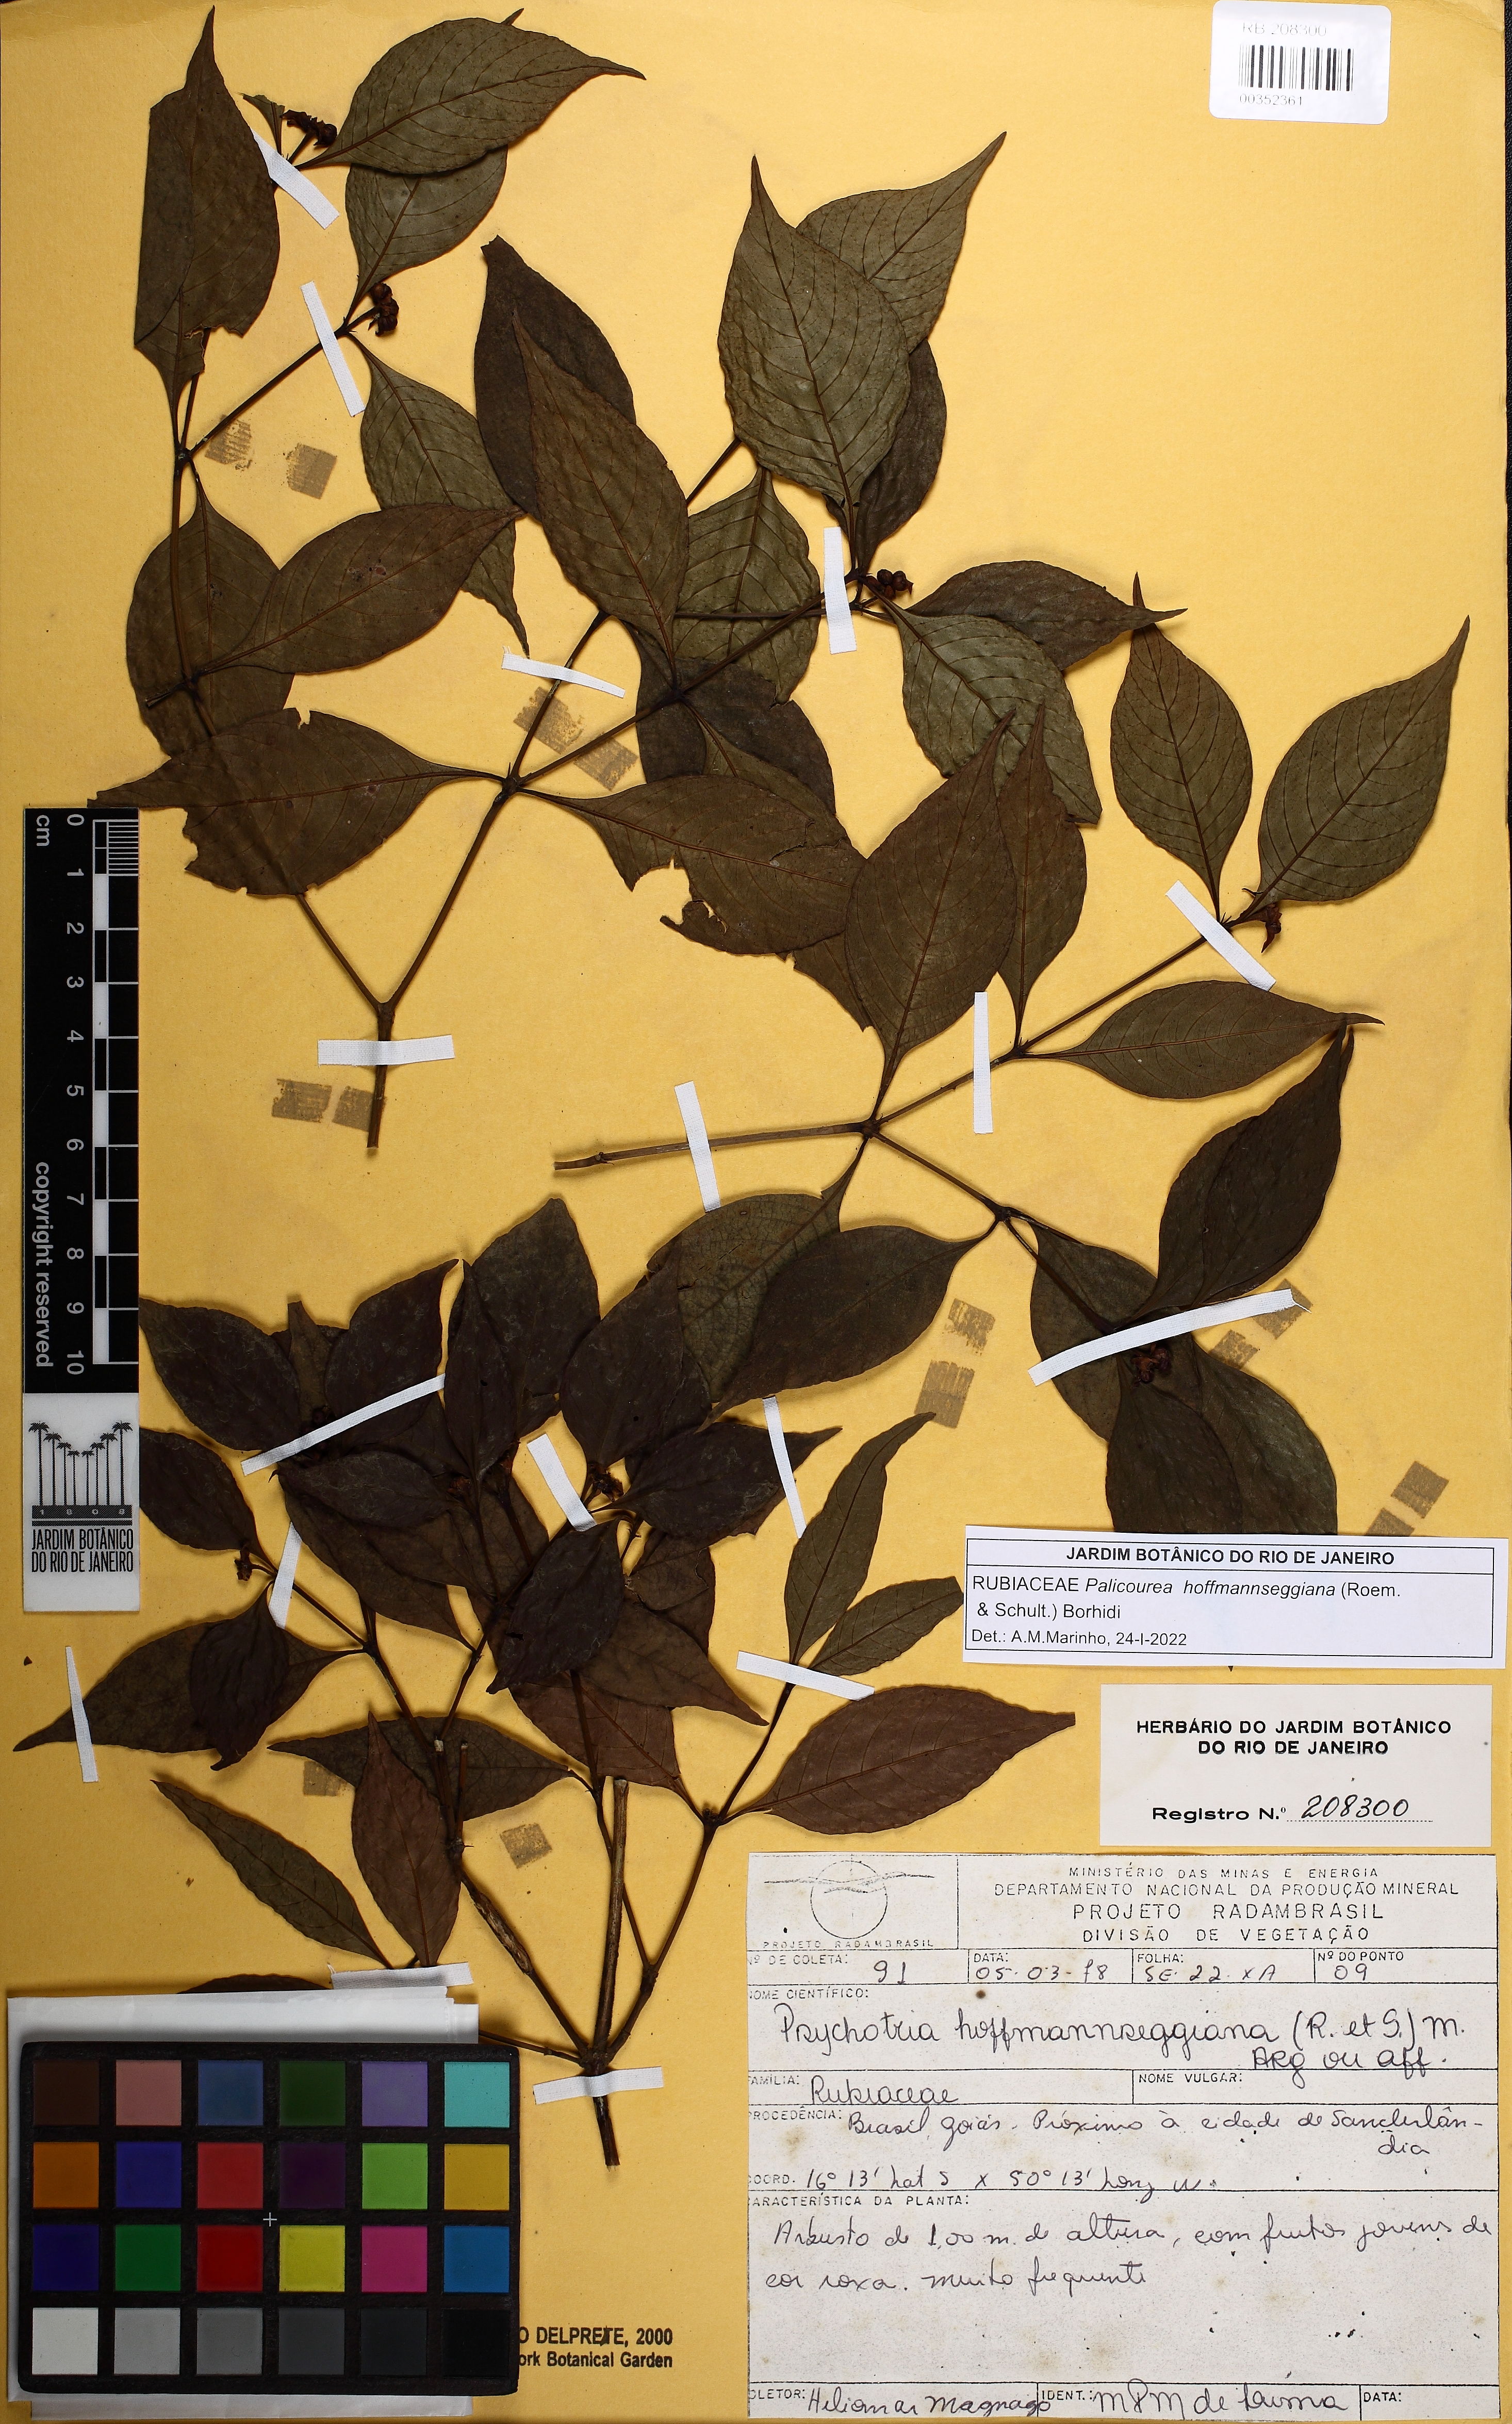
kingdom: Plantae
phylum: Tracheophyta
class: Magnoliopsida
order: Gentianales
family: Rubiaceae
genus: Palicourea
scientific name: Palicourea hoffmannseggiana
